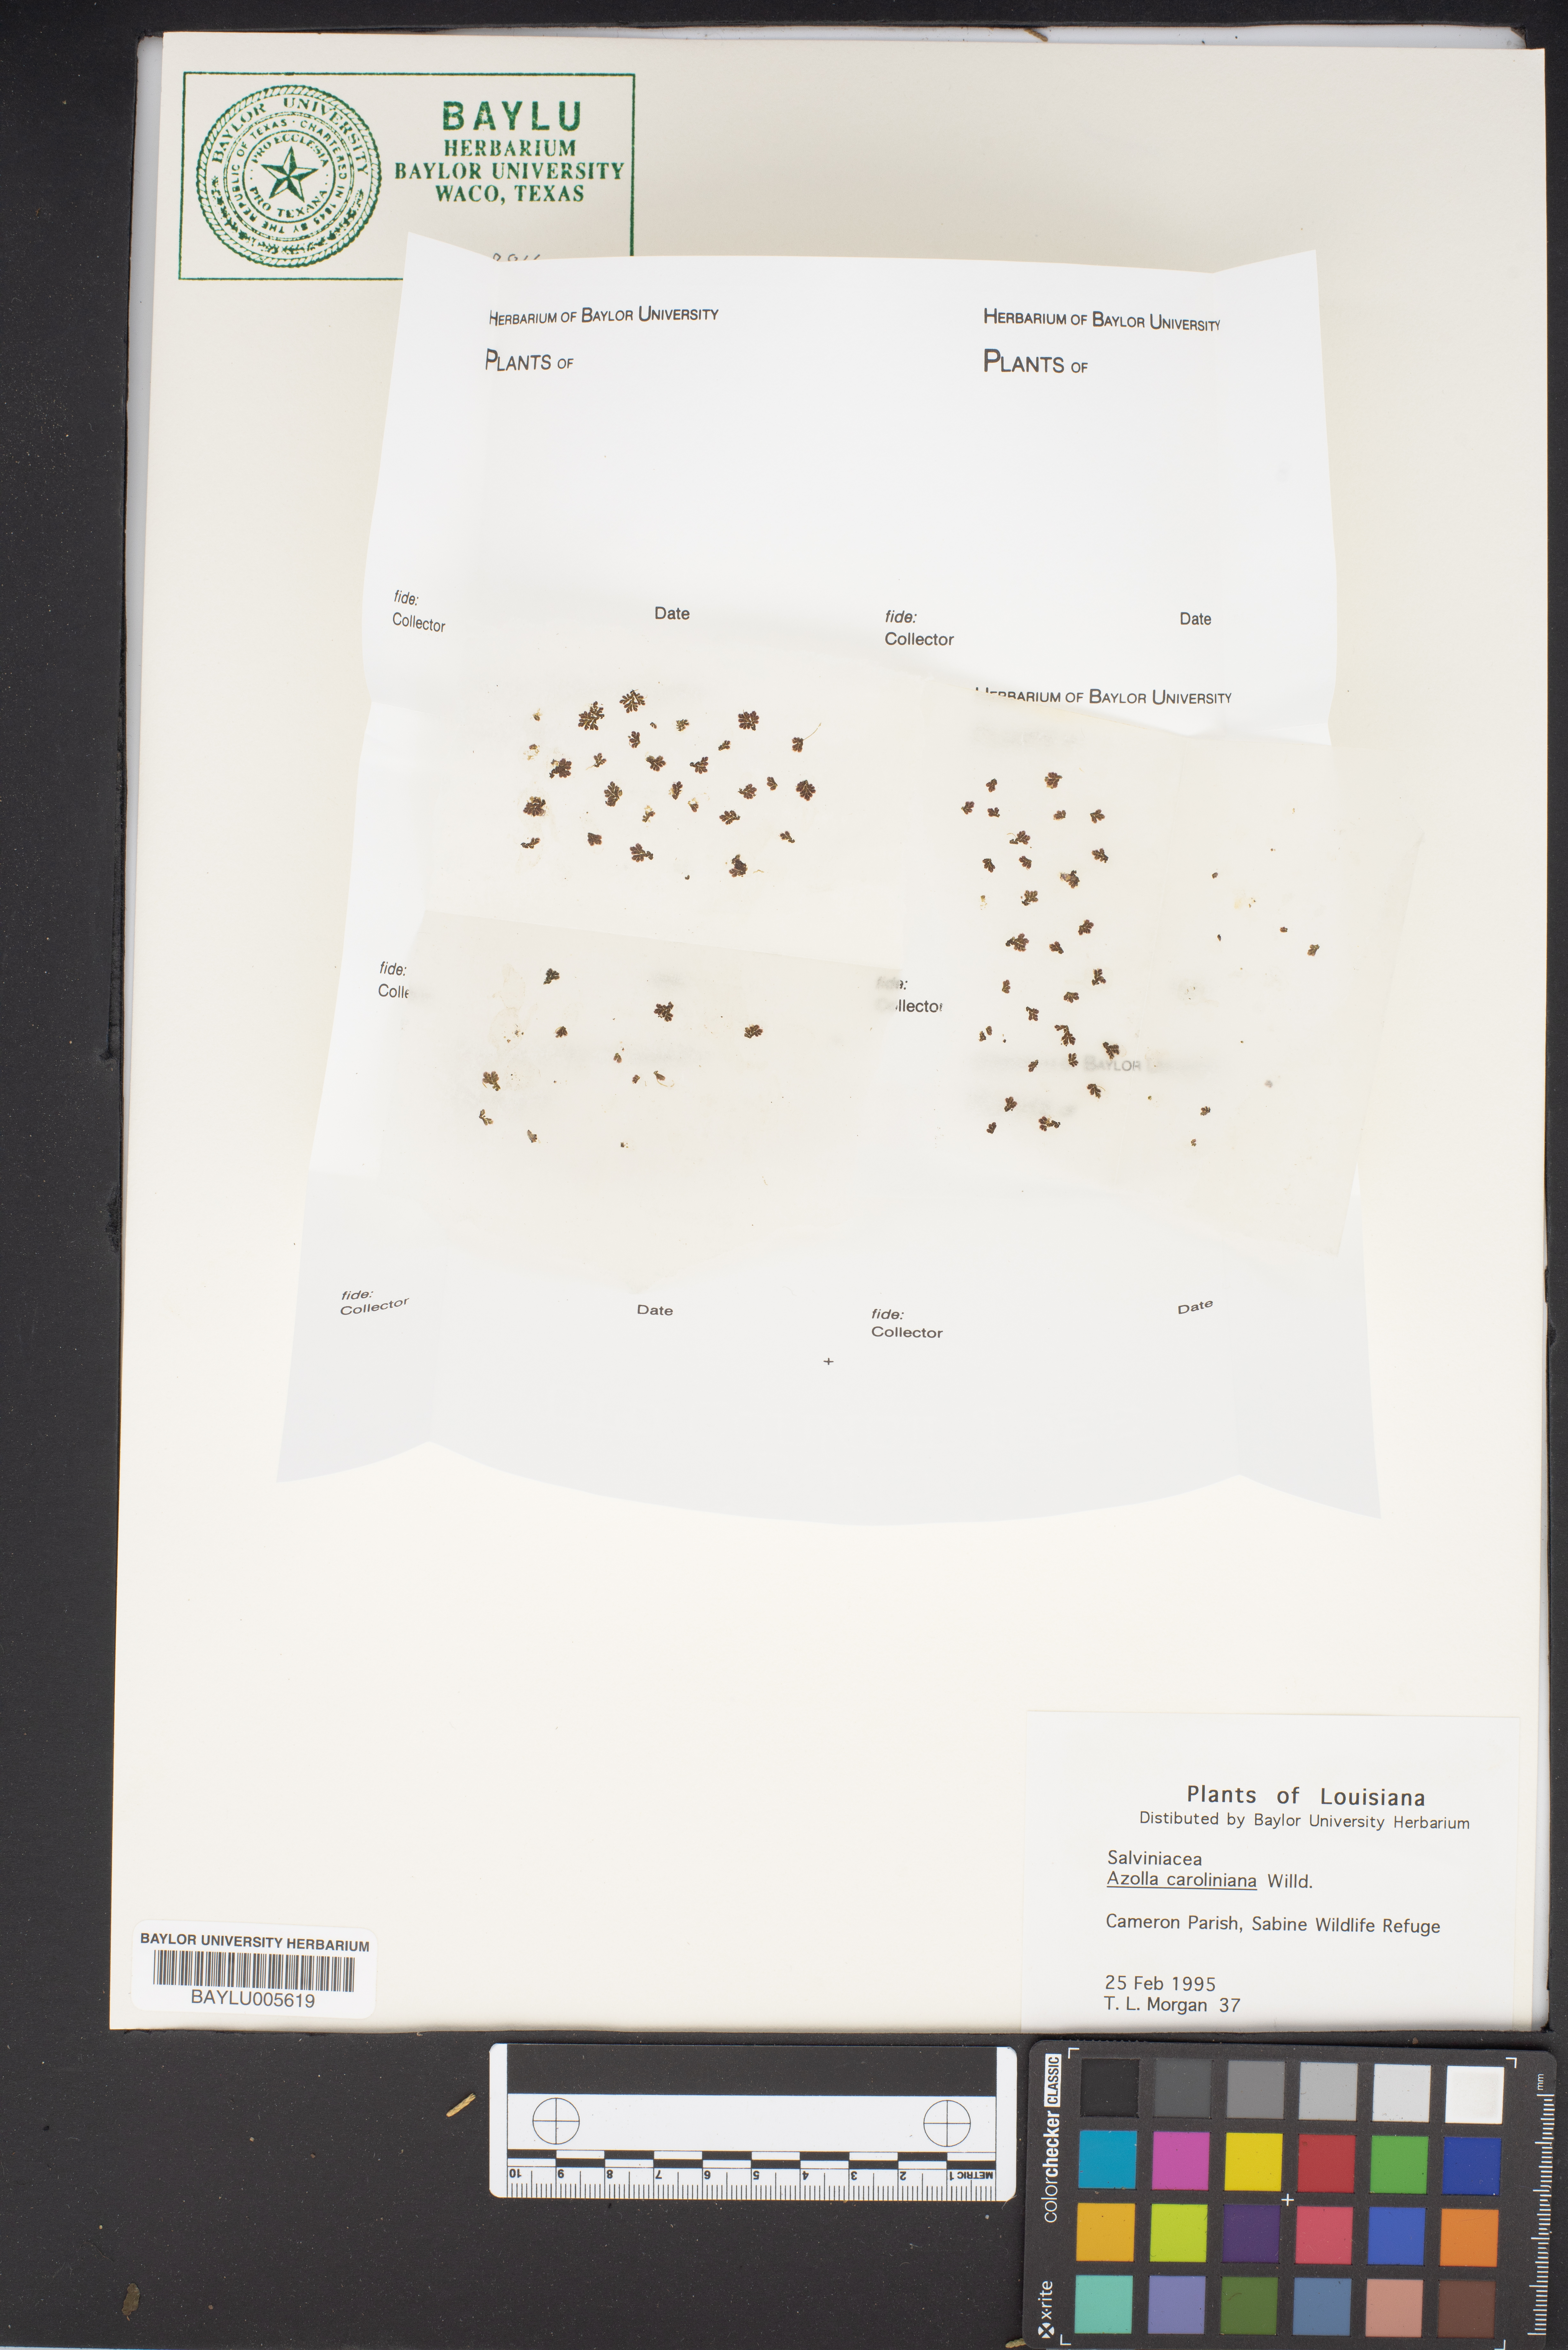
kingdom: Plantae
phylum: Tracheophyta
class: Polypodiopsida
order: Salviniales
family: Salviniaceae
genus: Azolla
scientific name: Azolla caroliniana
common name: Carolina mosquitofern
